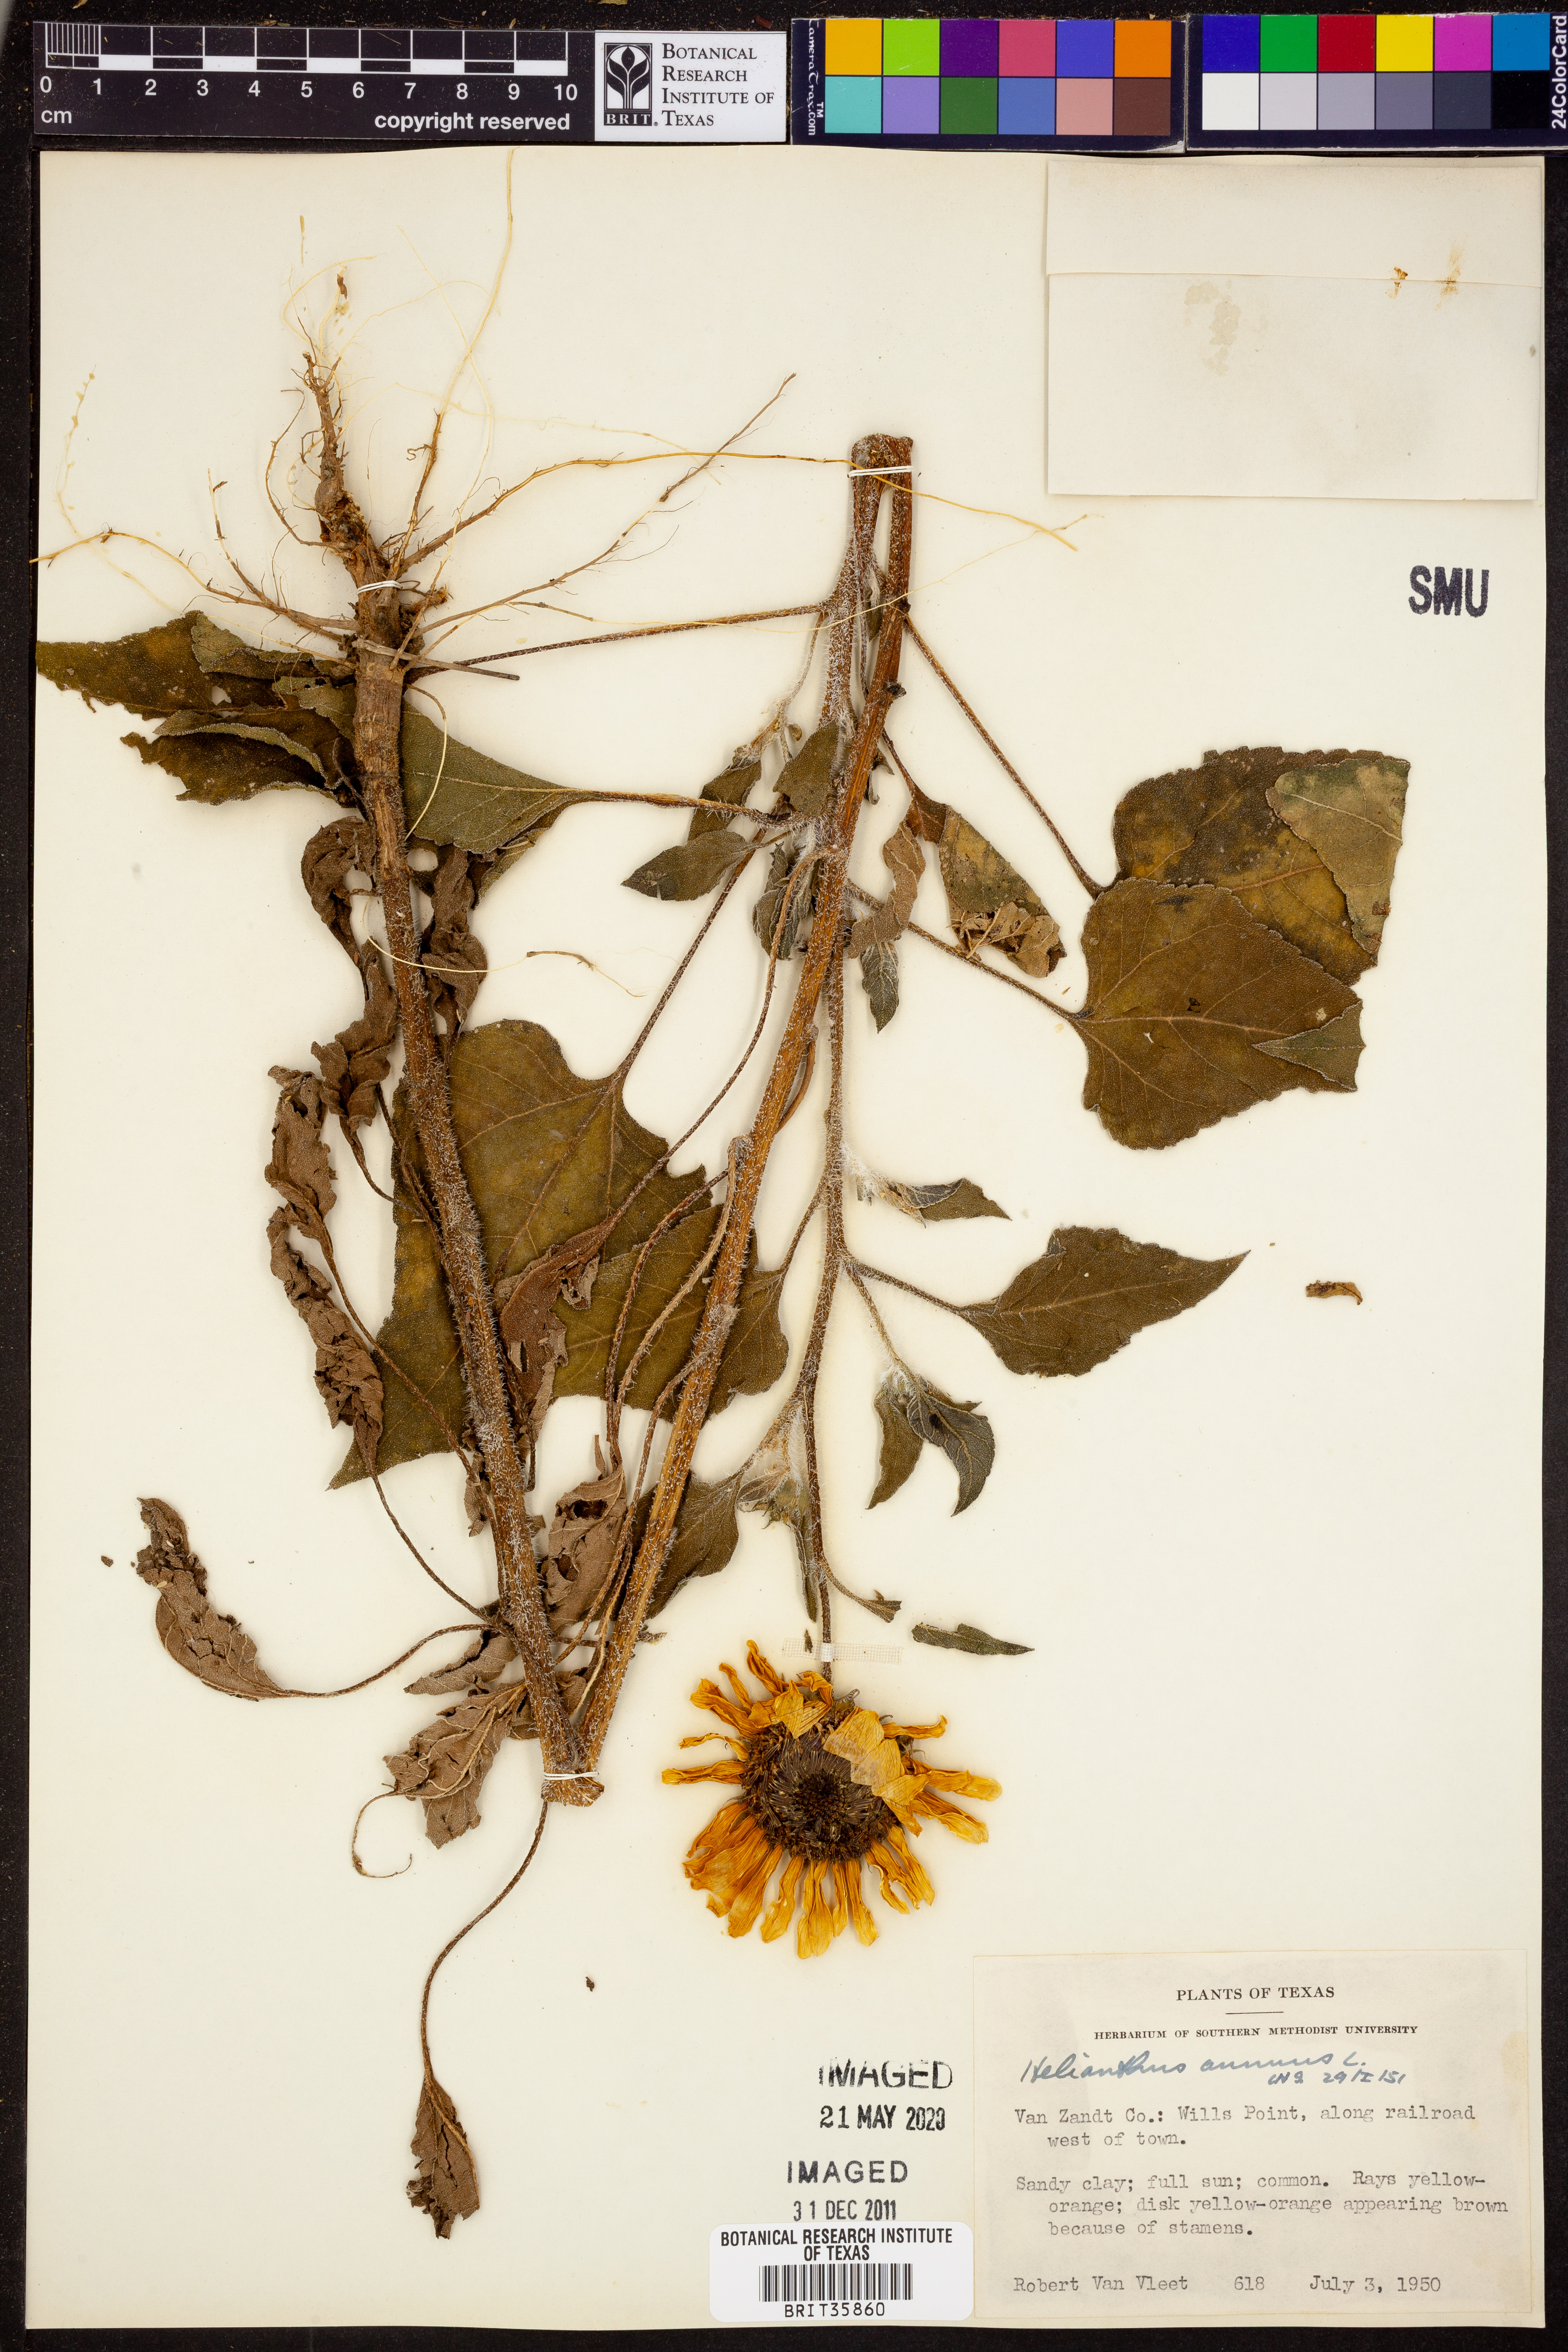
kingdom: Plantae
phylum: Tracheophyta
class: Magnoliopsida
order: Asterales
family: Asteraceae
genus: Helianthus
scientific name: Helianthus annuus
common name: Sunflower
